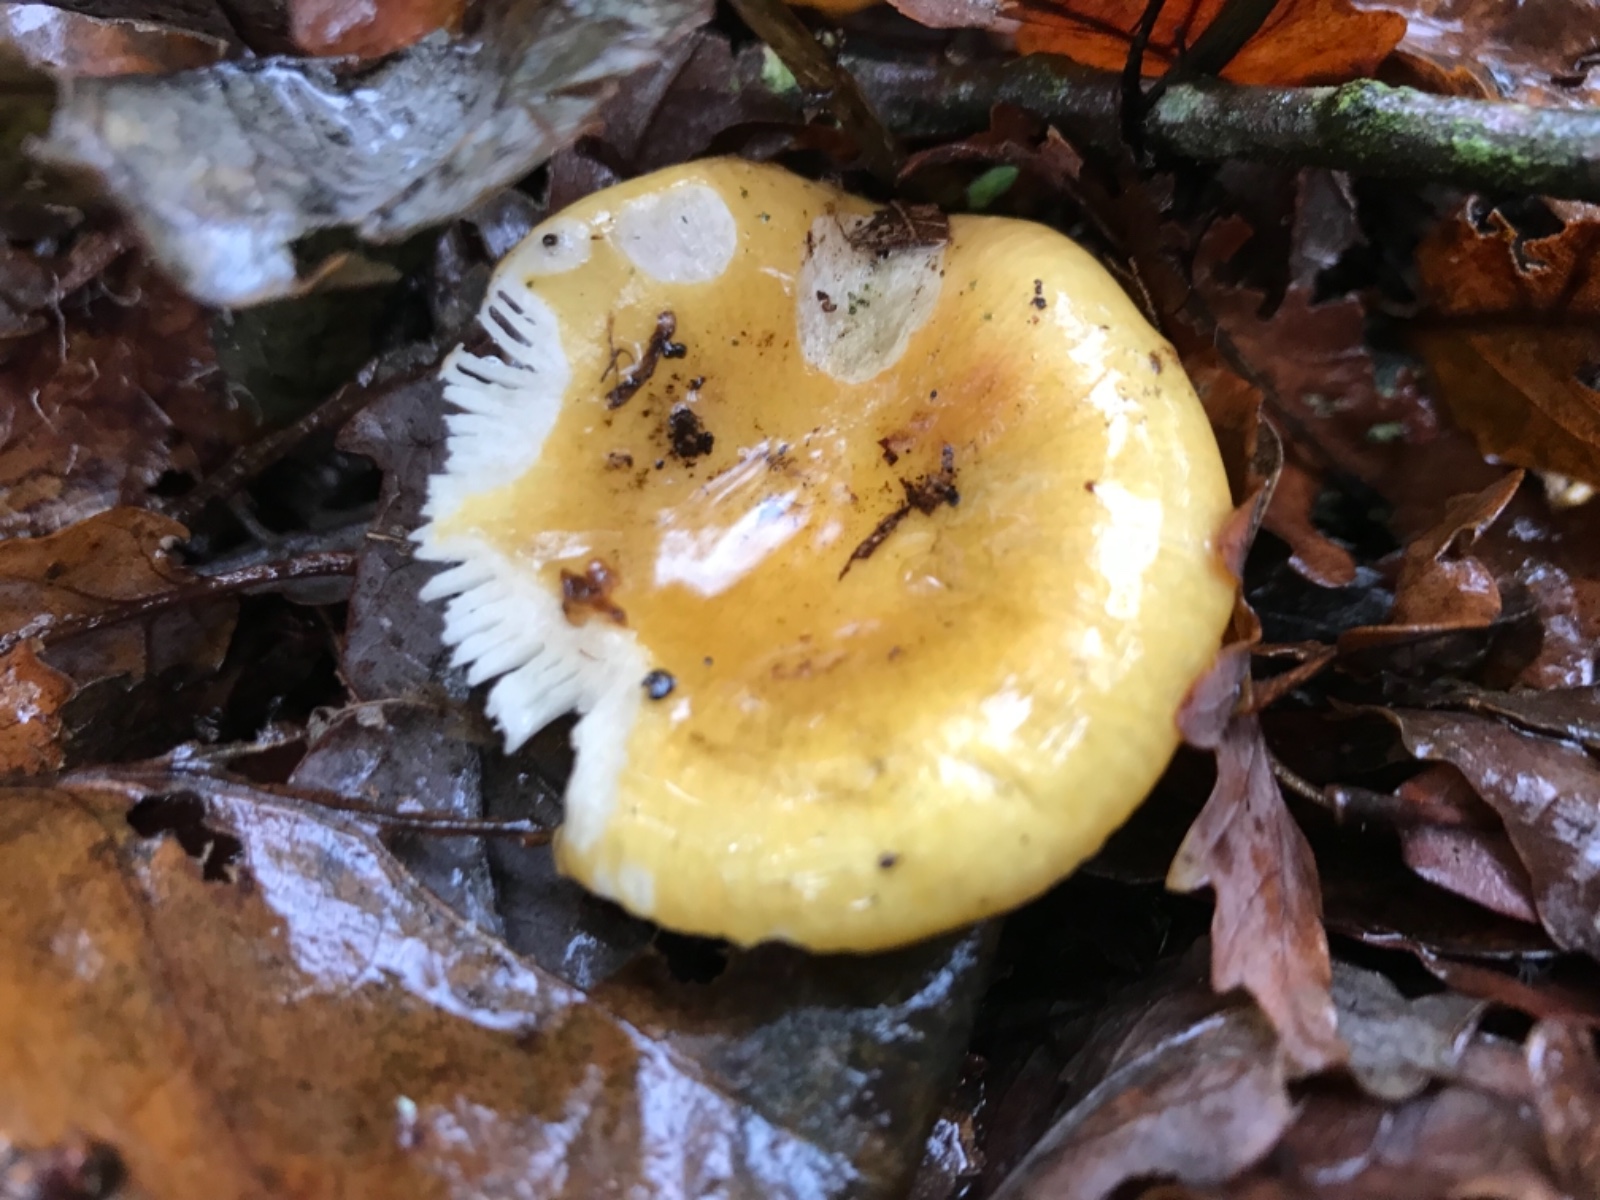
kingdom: Fungi
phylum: Basidiomycota
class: Agaricomycetes
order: Russulales
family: Russulaceae
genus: Russula
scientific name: Russula ochroleuca
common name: okkergul skørhat
